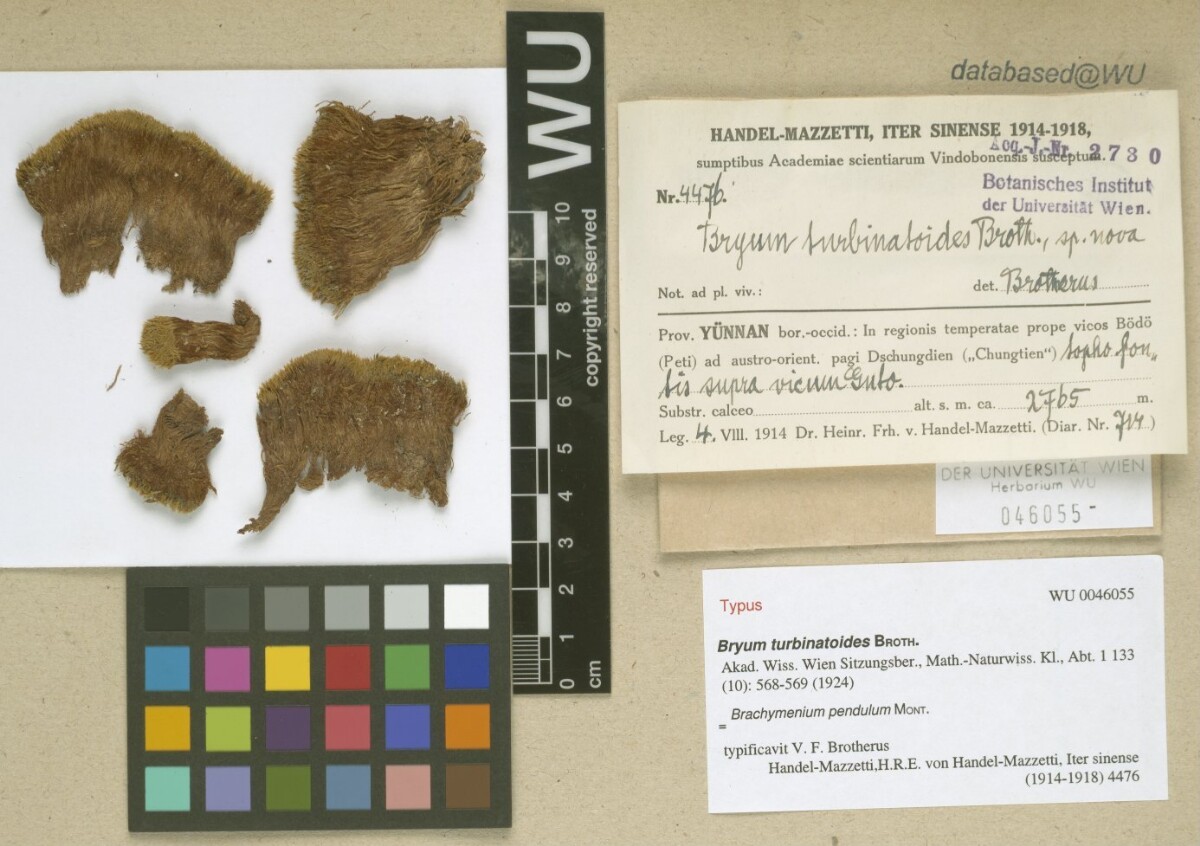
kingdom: Plantae
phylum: Bryophyta
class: Bryopsida
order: Bryales
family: Bryaceae
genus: Brachymenium
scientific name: Brachymenium pendulum
